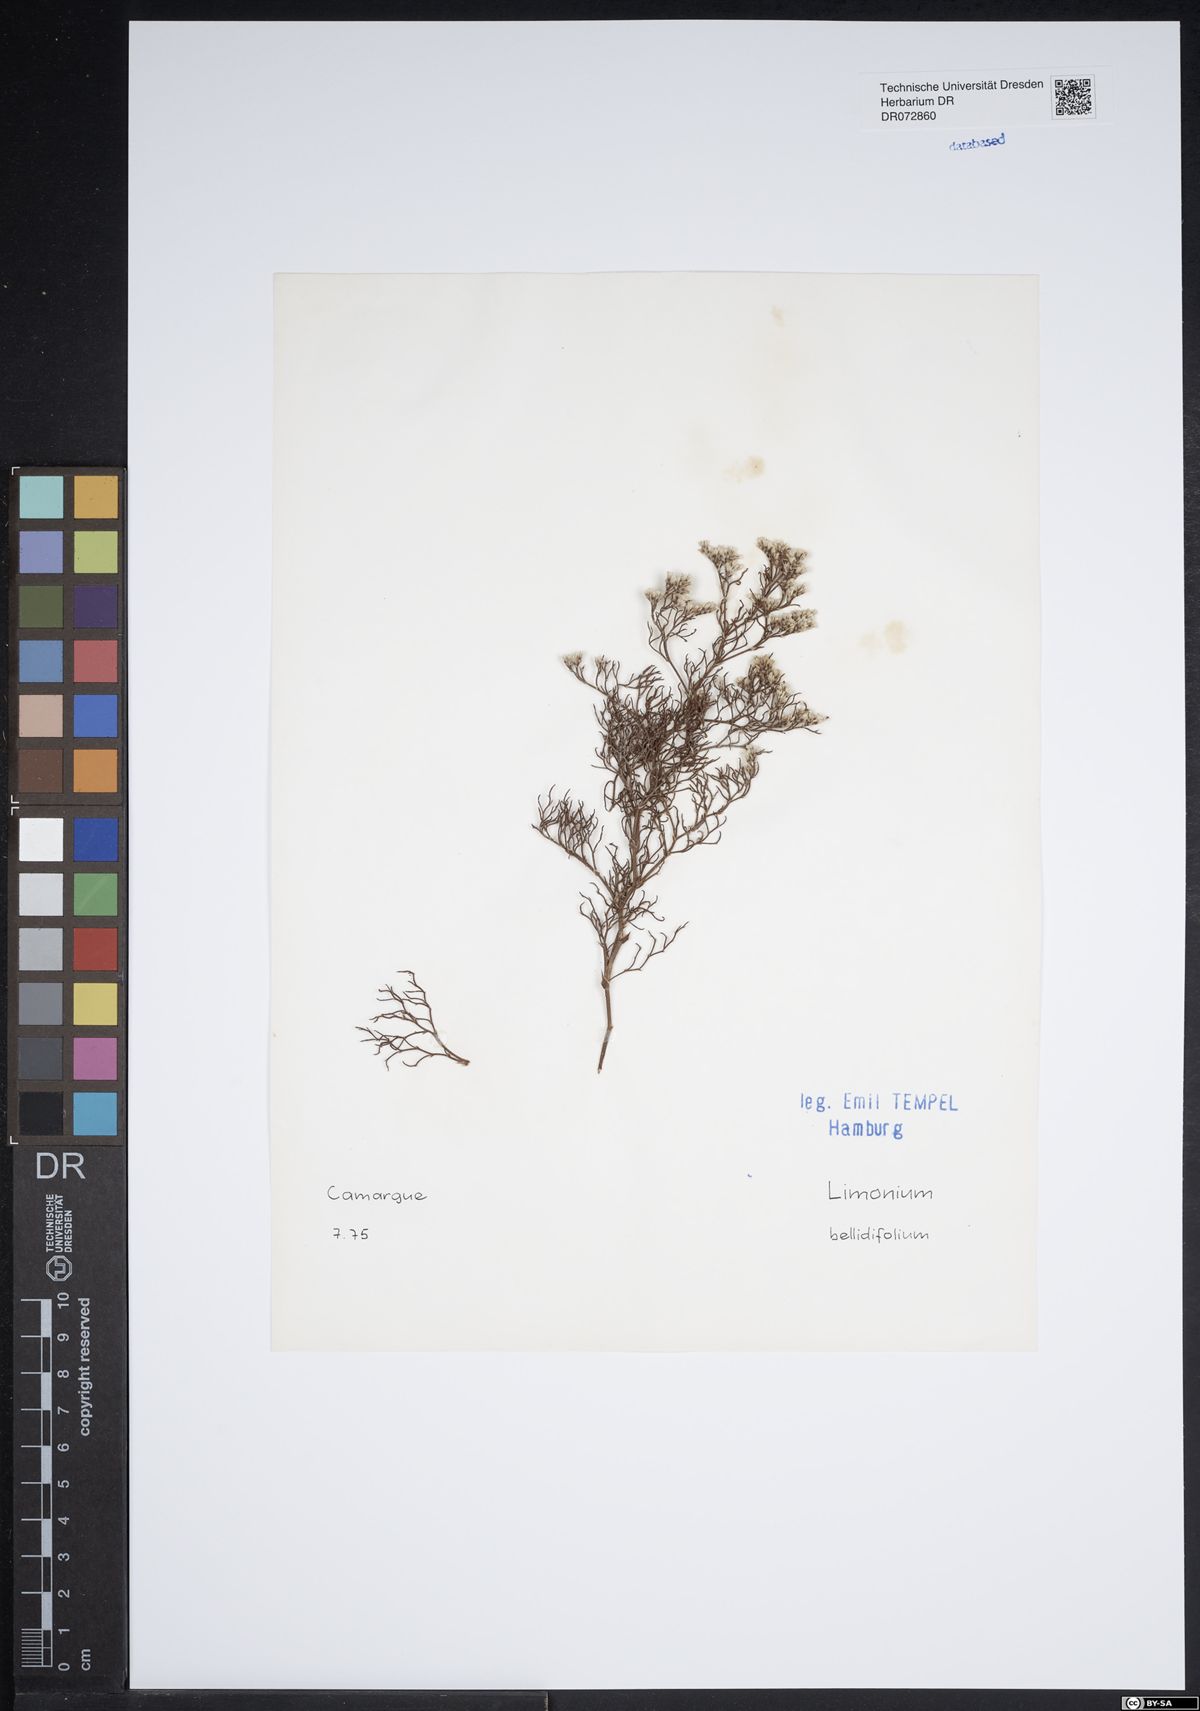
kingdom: Plantae
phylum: Tracheophyta
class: Magnoliopsida
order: Caryophyllales
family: Plumbaginaceae
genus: Limonium
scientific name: Limonium bellidifolium
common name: Matted sea-lavender
